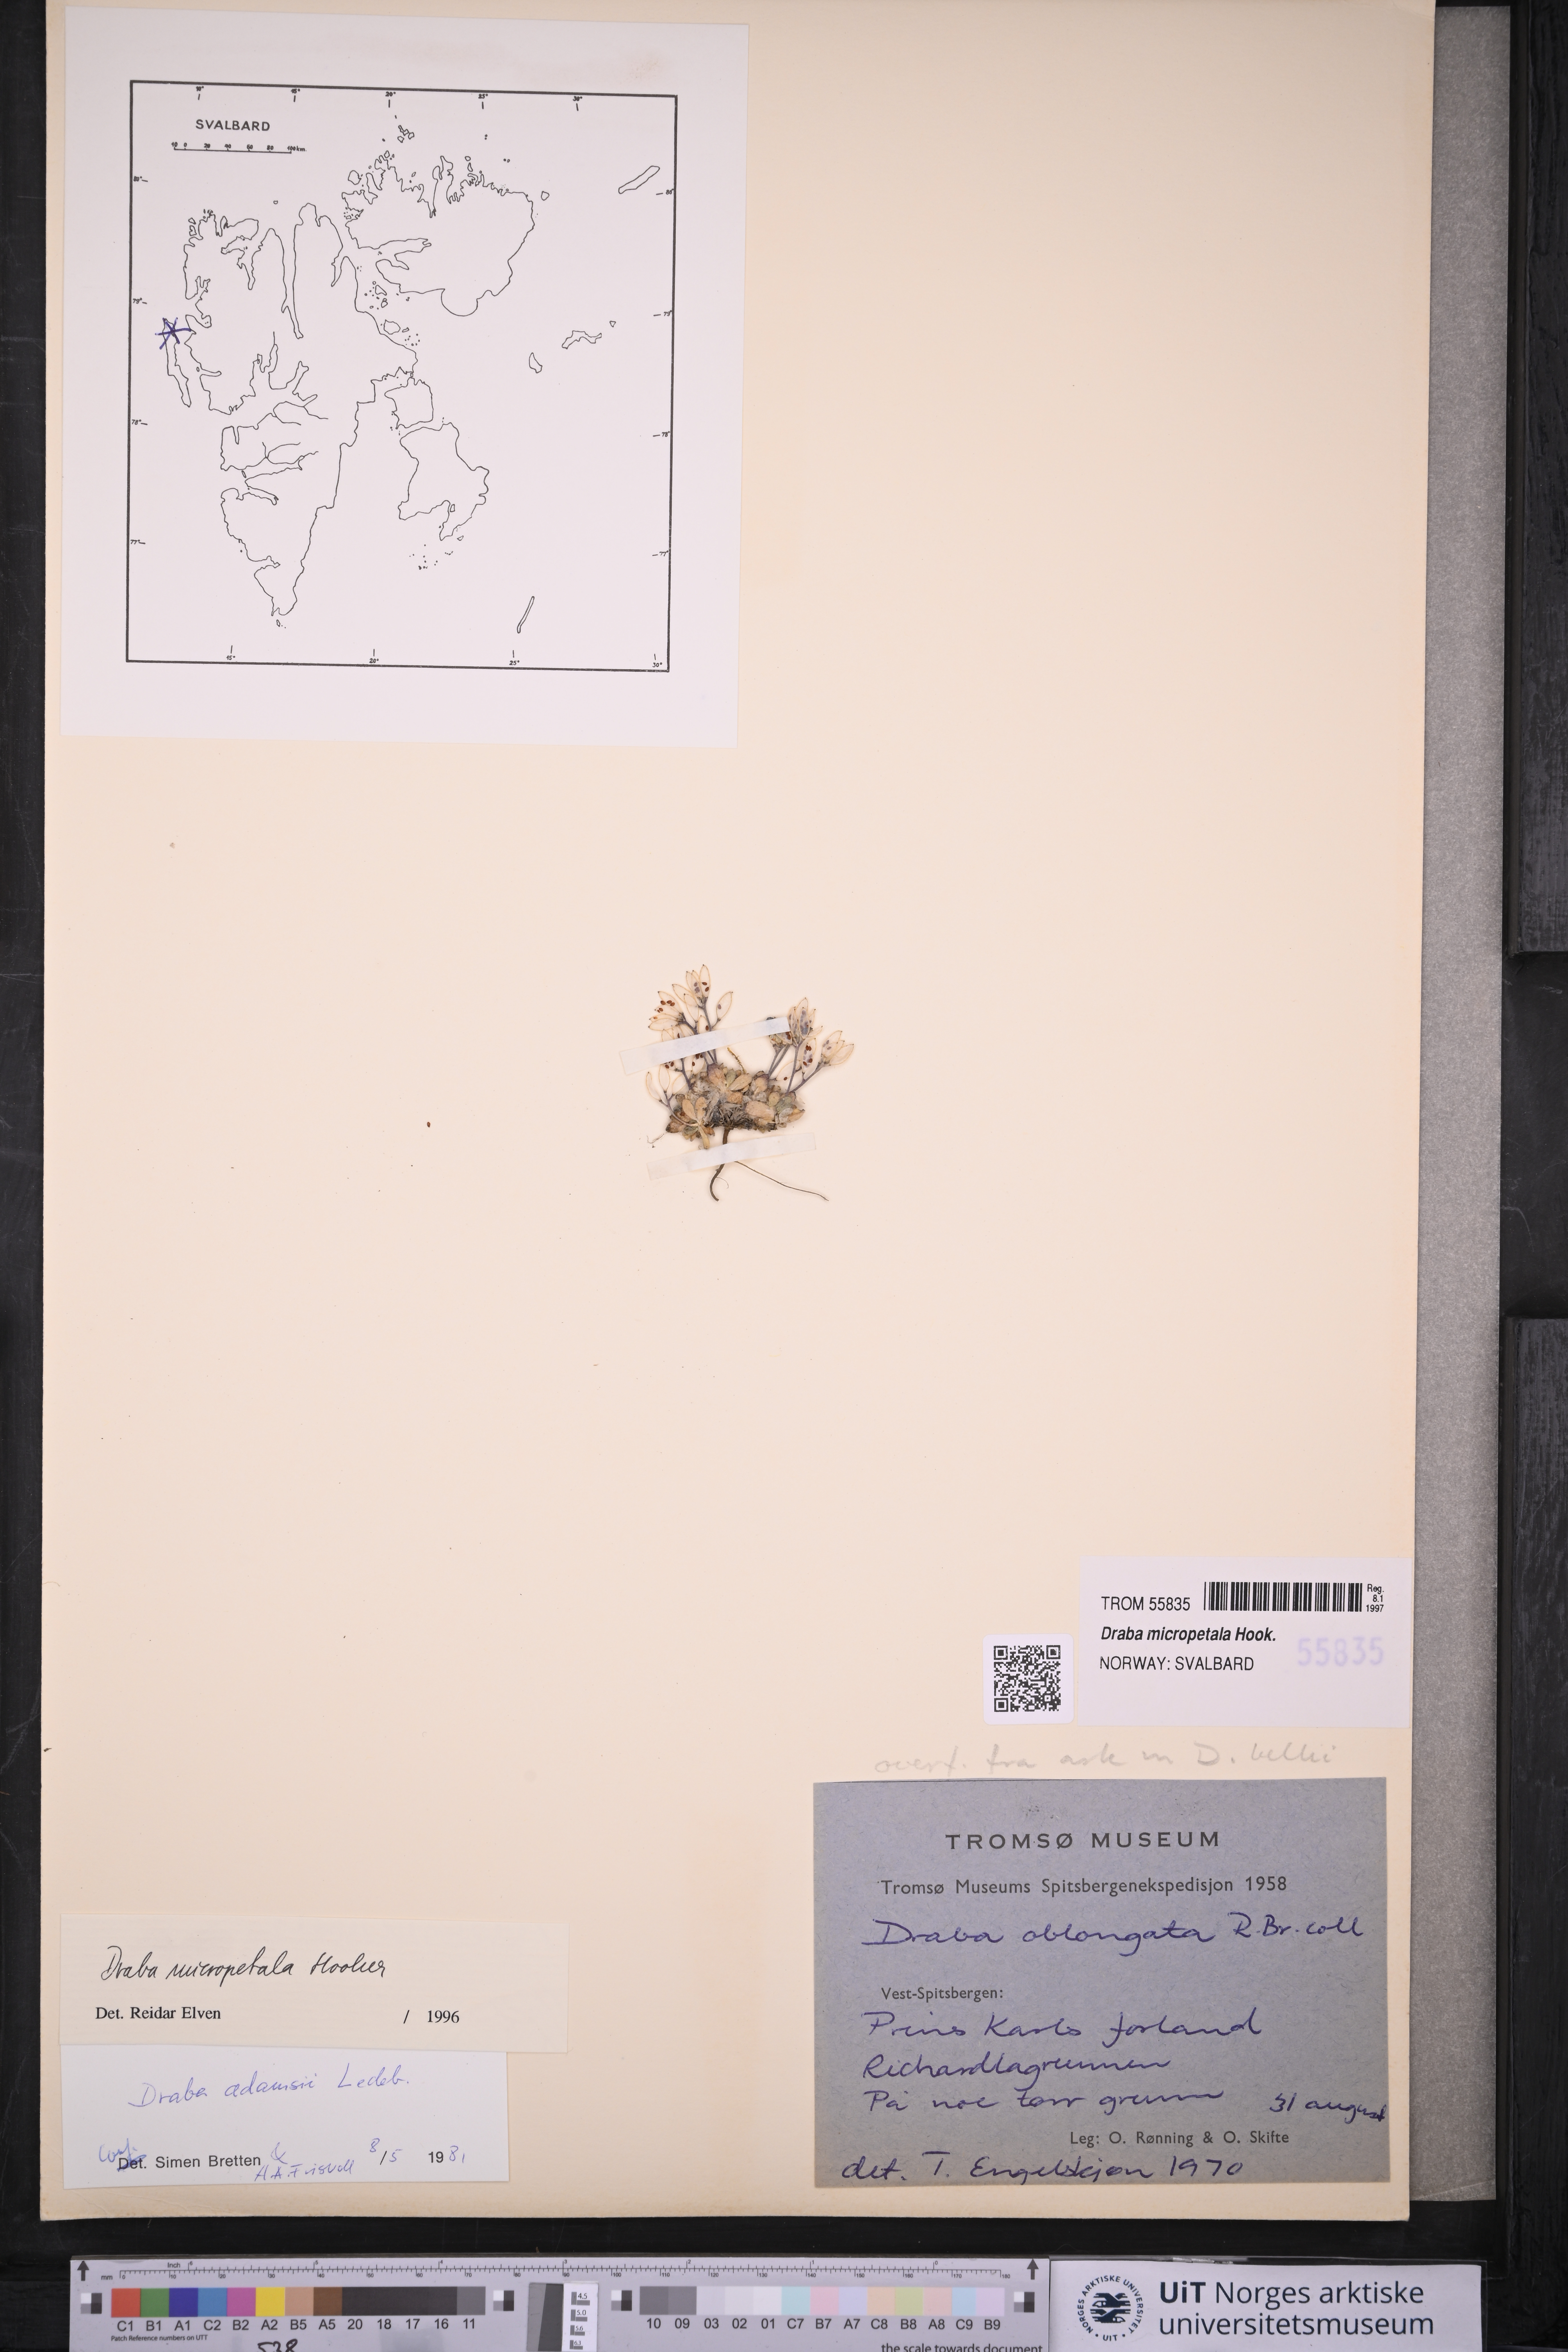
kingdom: Plantae
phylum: Tracheophyta
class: Magnoliopsida
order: Brassicales
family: Brassicaceae
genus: Draba
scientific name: Draba micropetala
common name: Small-flowered draba
